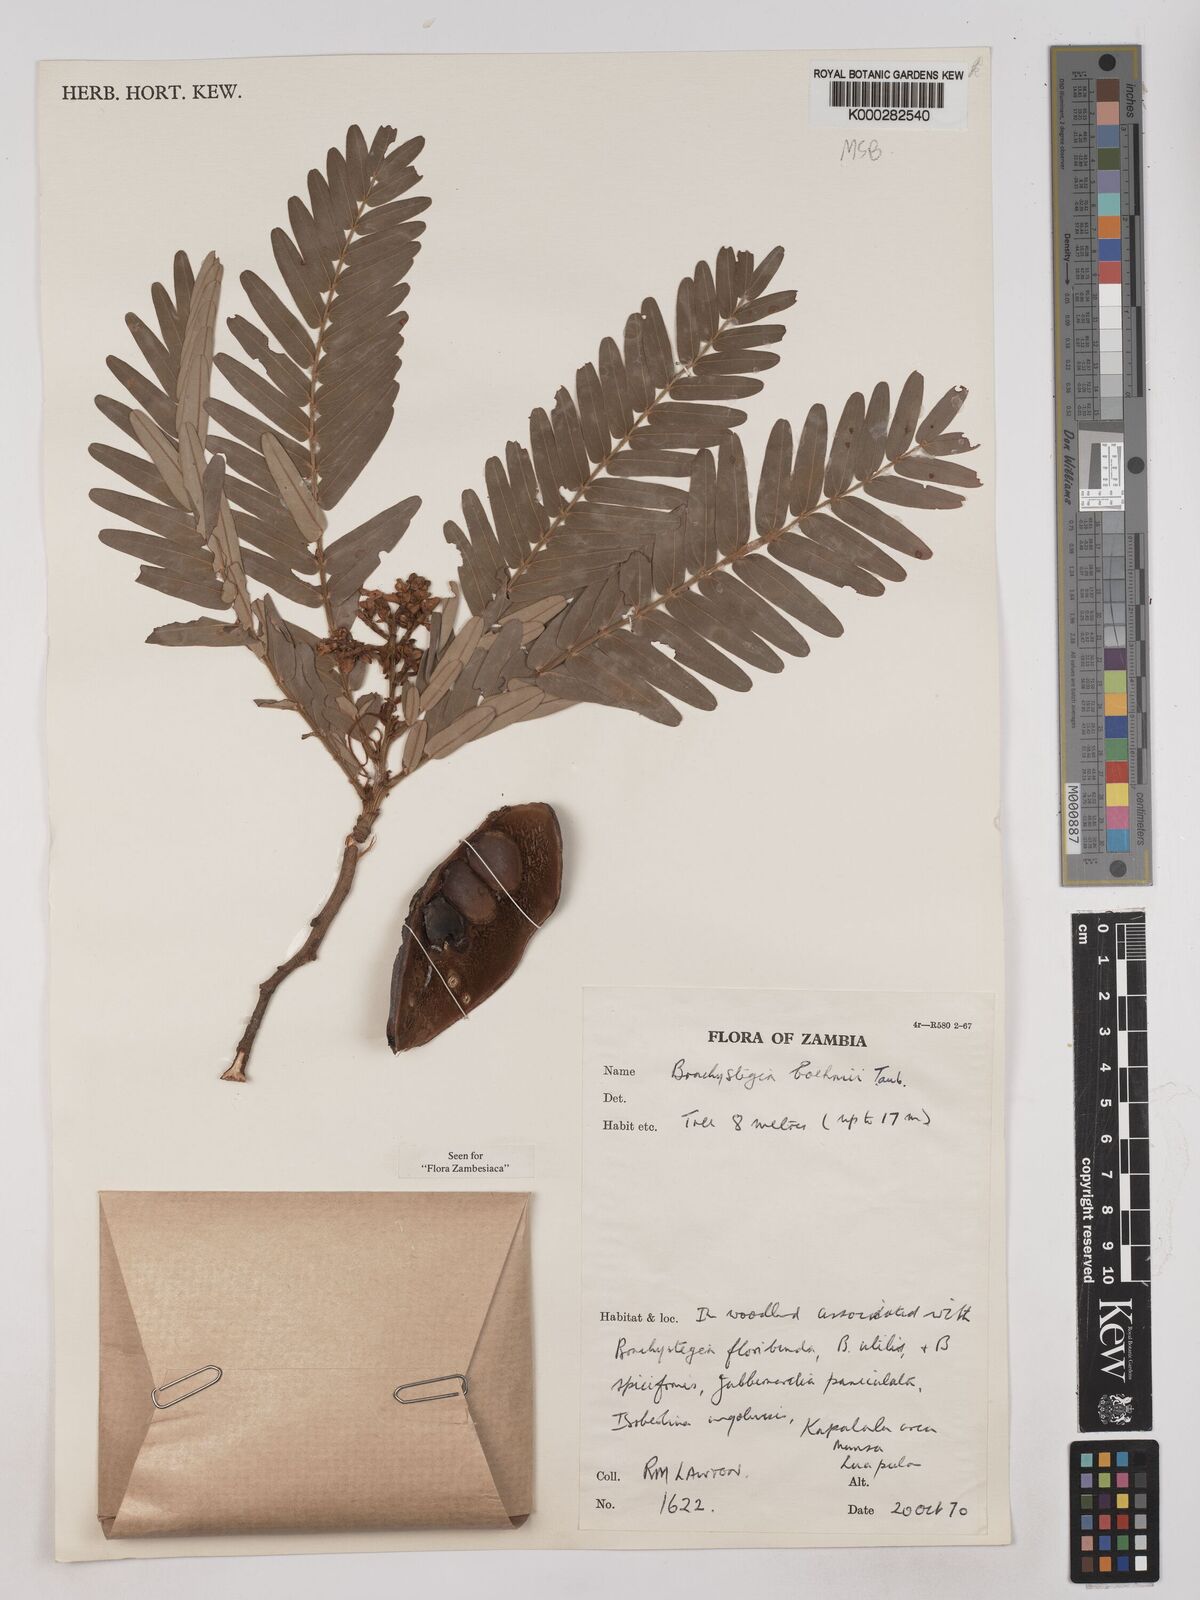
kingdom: Plantae
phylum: Tracheophyta
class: Magnoliopsida
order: Fabales
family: Fabaceae
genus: Brachystegia
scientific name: Brachystegia boehmii
